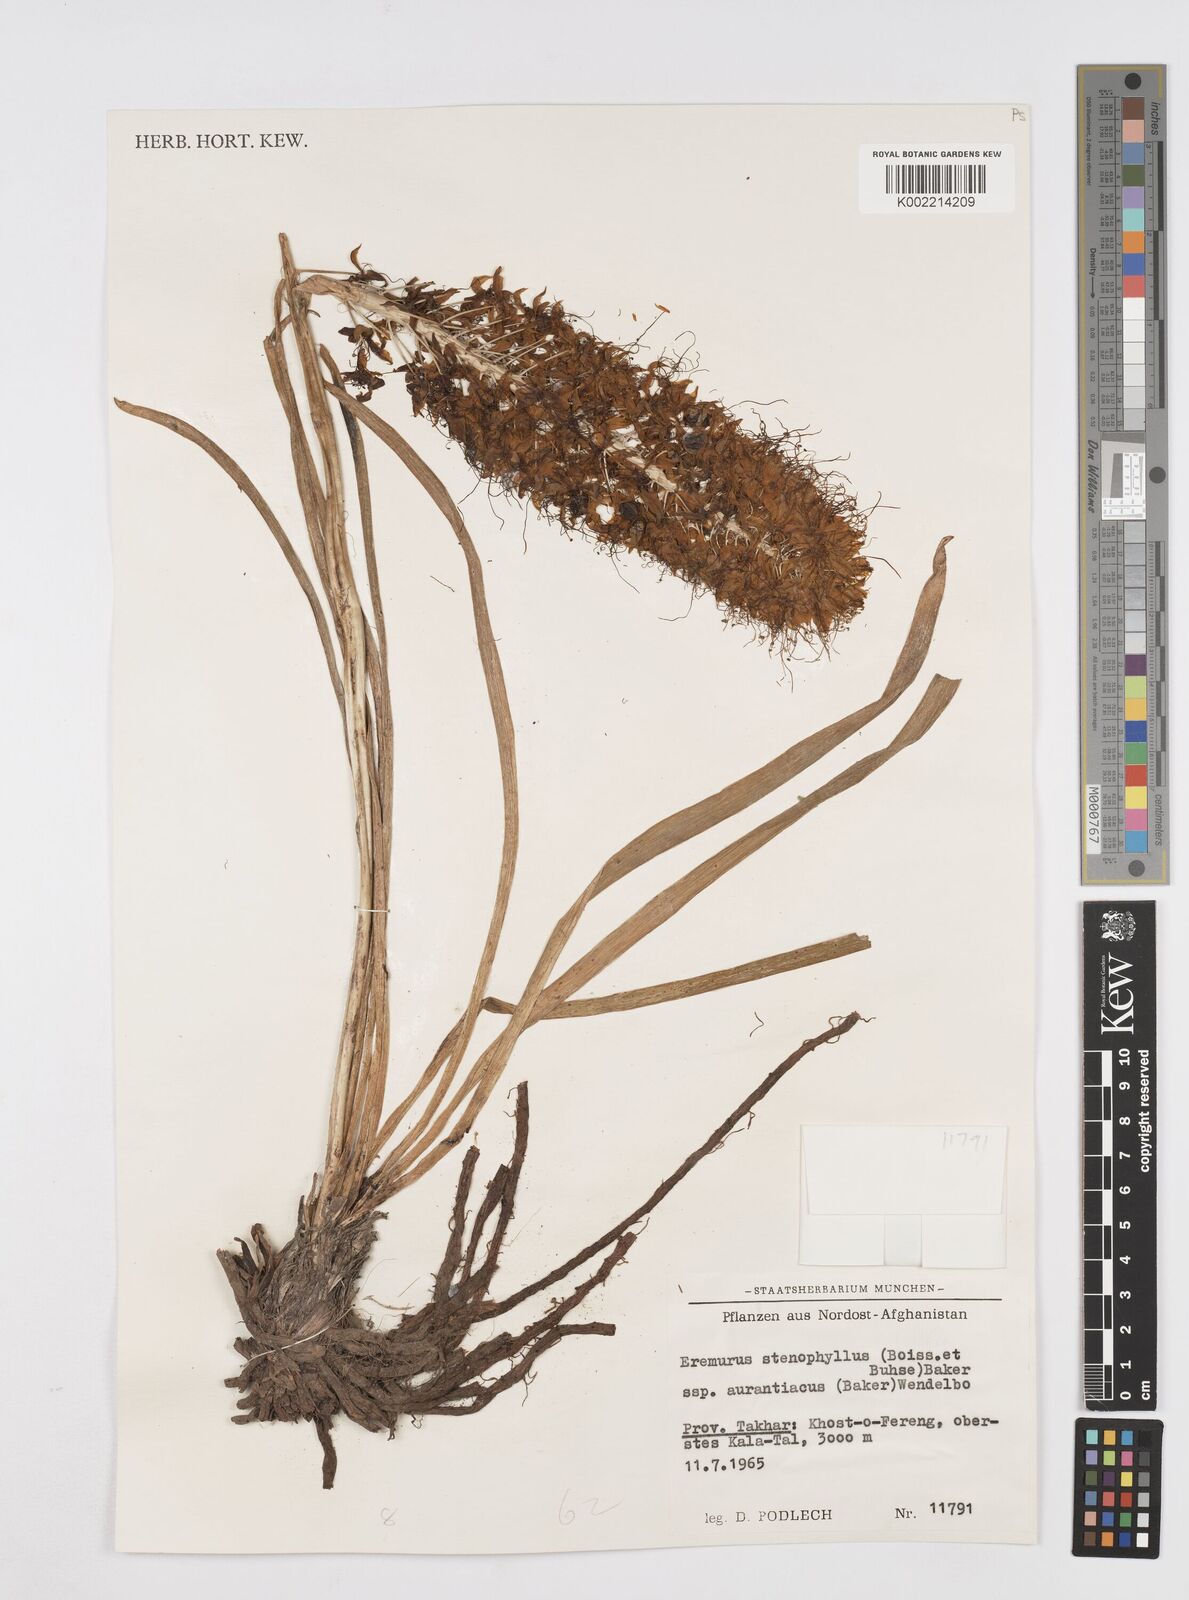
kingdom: Plantae
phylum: Tracheophyta
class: Liliopsida
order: Asparagales
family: Asphodelaceae
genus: Eremurus
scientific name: Eremurus stenophyllus
